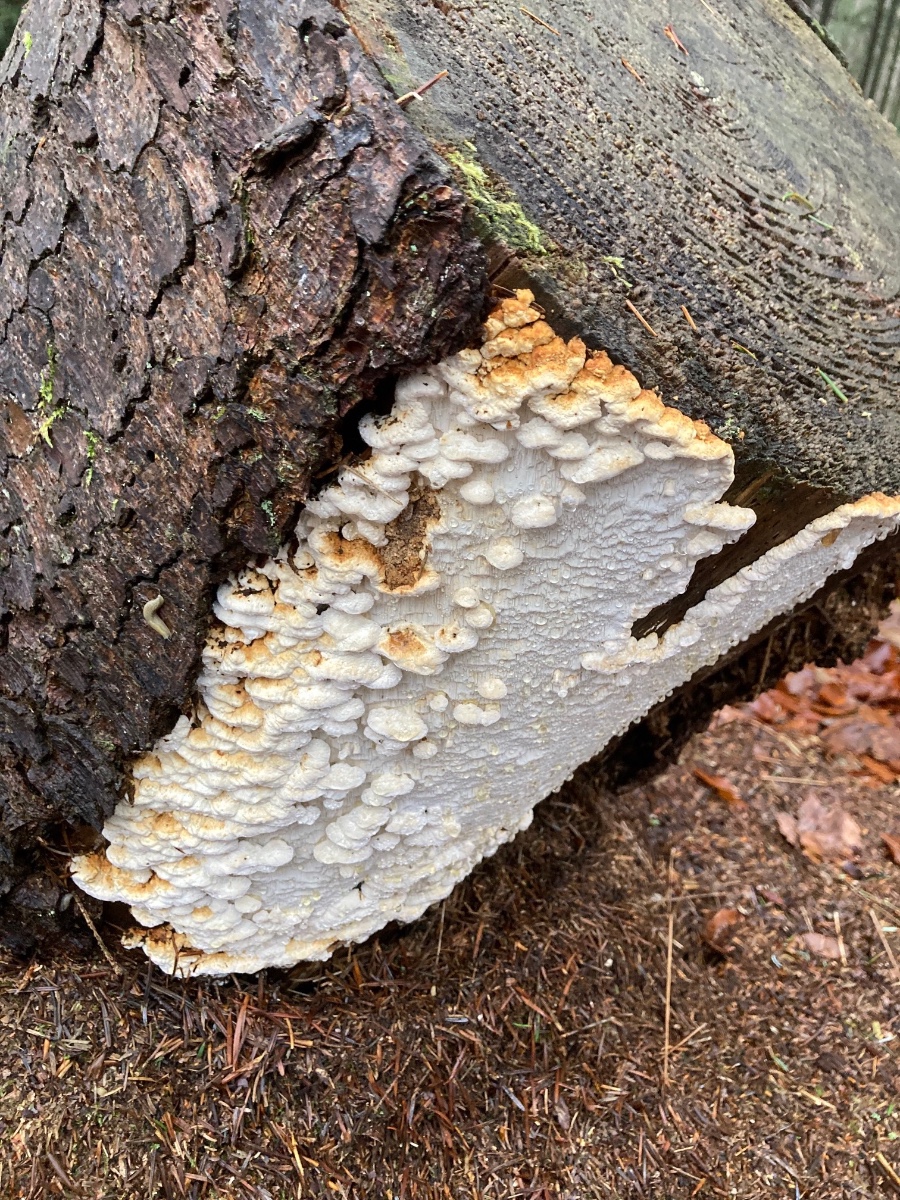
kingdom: Fungi
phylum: Basidiomycota
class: Agaricomycetes
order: Polyporales
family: Fomitopsidaceae
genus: Neoantrodia
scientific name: Neoantrodia serialis
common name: række-sejporesvamp
